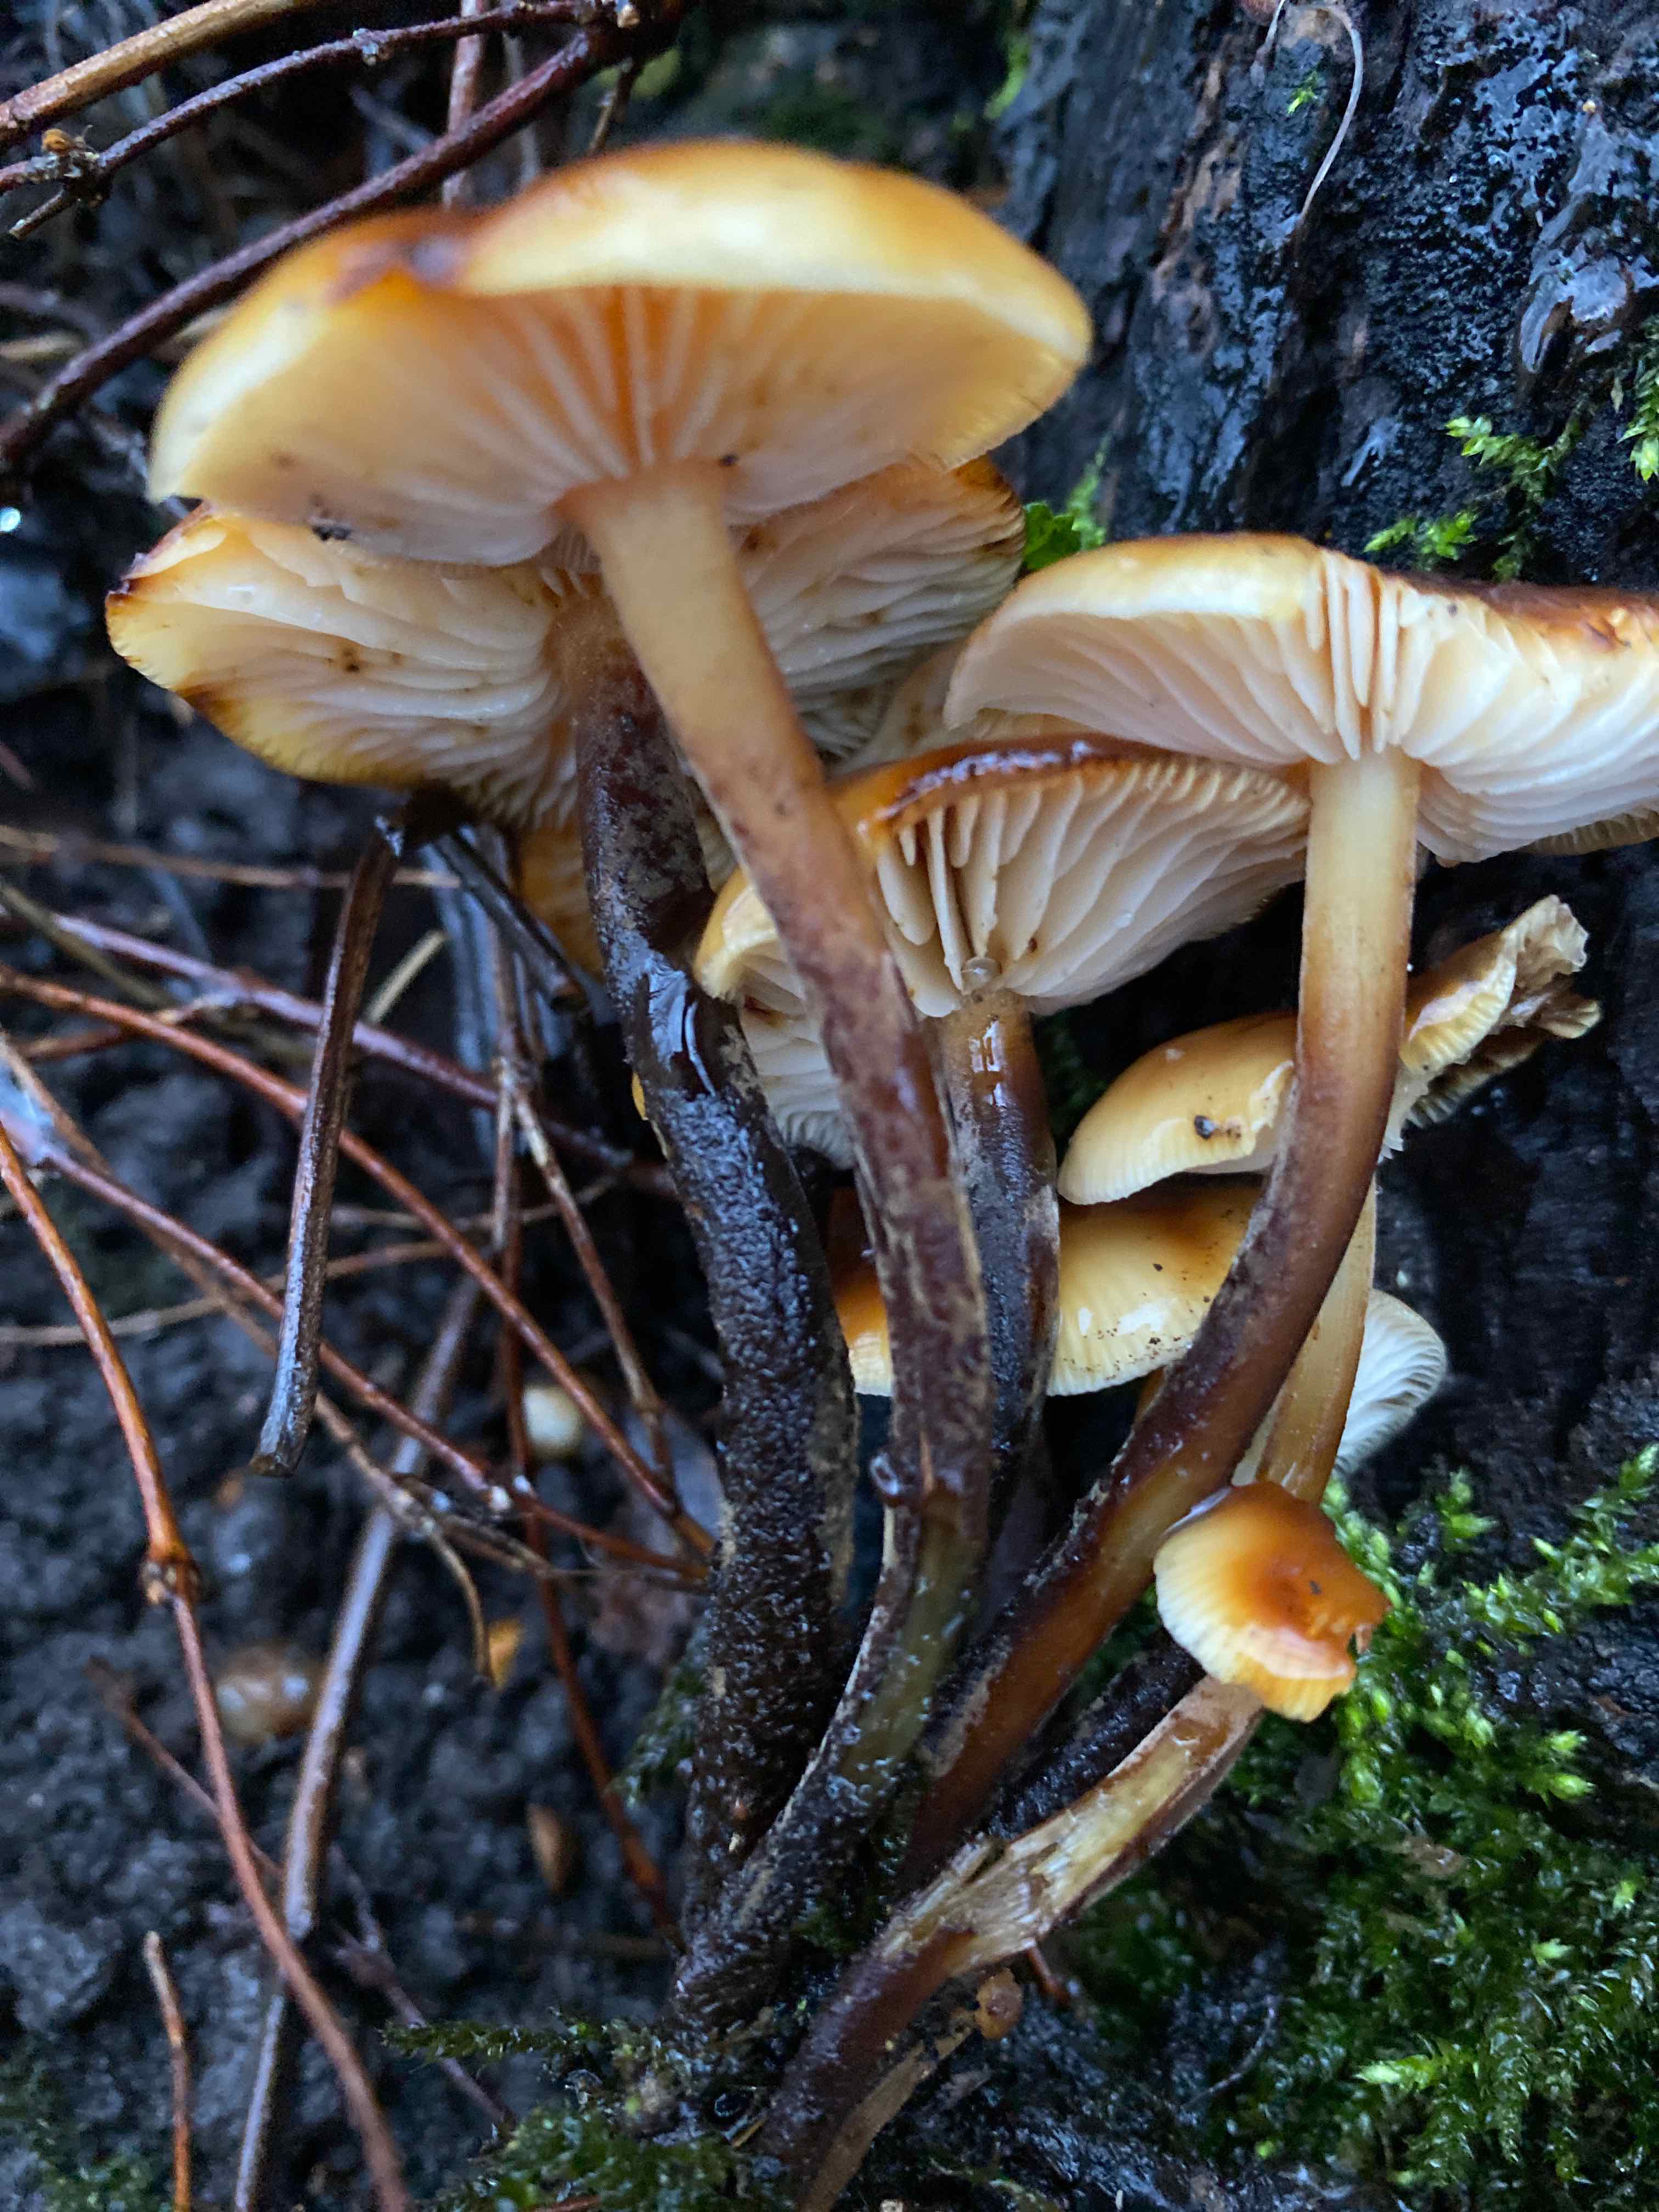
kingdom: Fungi
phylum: Basidiomycota
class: Agaricomycetes
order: Agaricales
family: Physalacriaceae
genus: Flammulina
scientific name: Flammulina velutipes
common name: gul fløjlsfod
